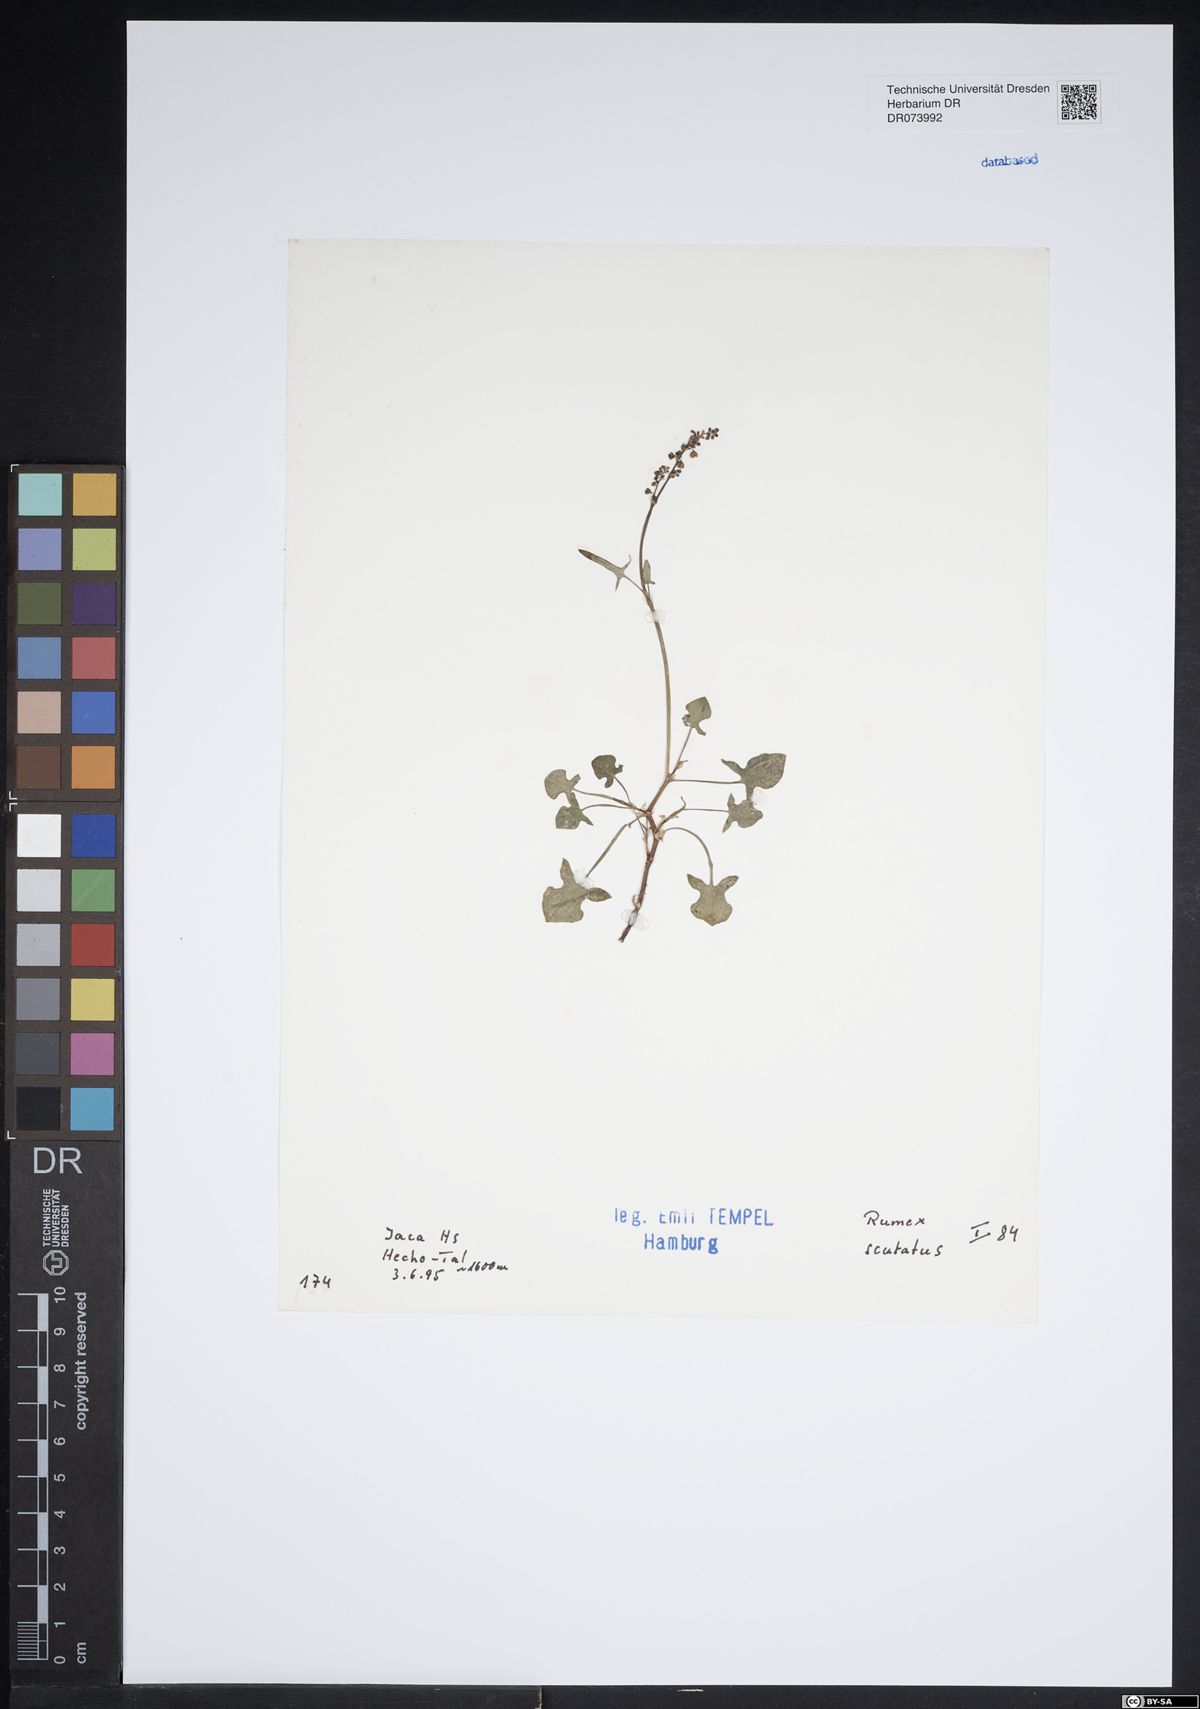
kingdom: Plantae
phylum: Tracheophyta
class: Magnoliopsida
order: Caryophyllales
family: Polygonaceae
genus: Rumex
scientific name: Rumex scutatus
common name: French sorrel
